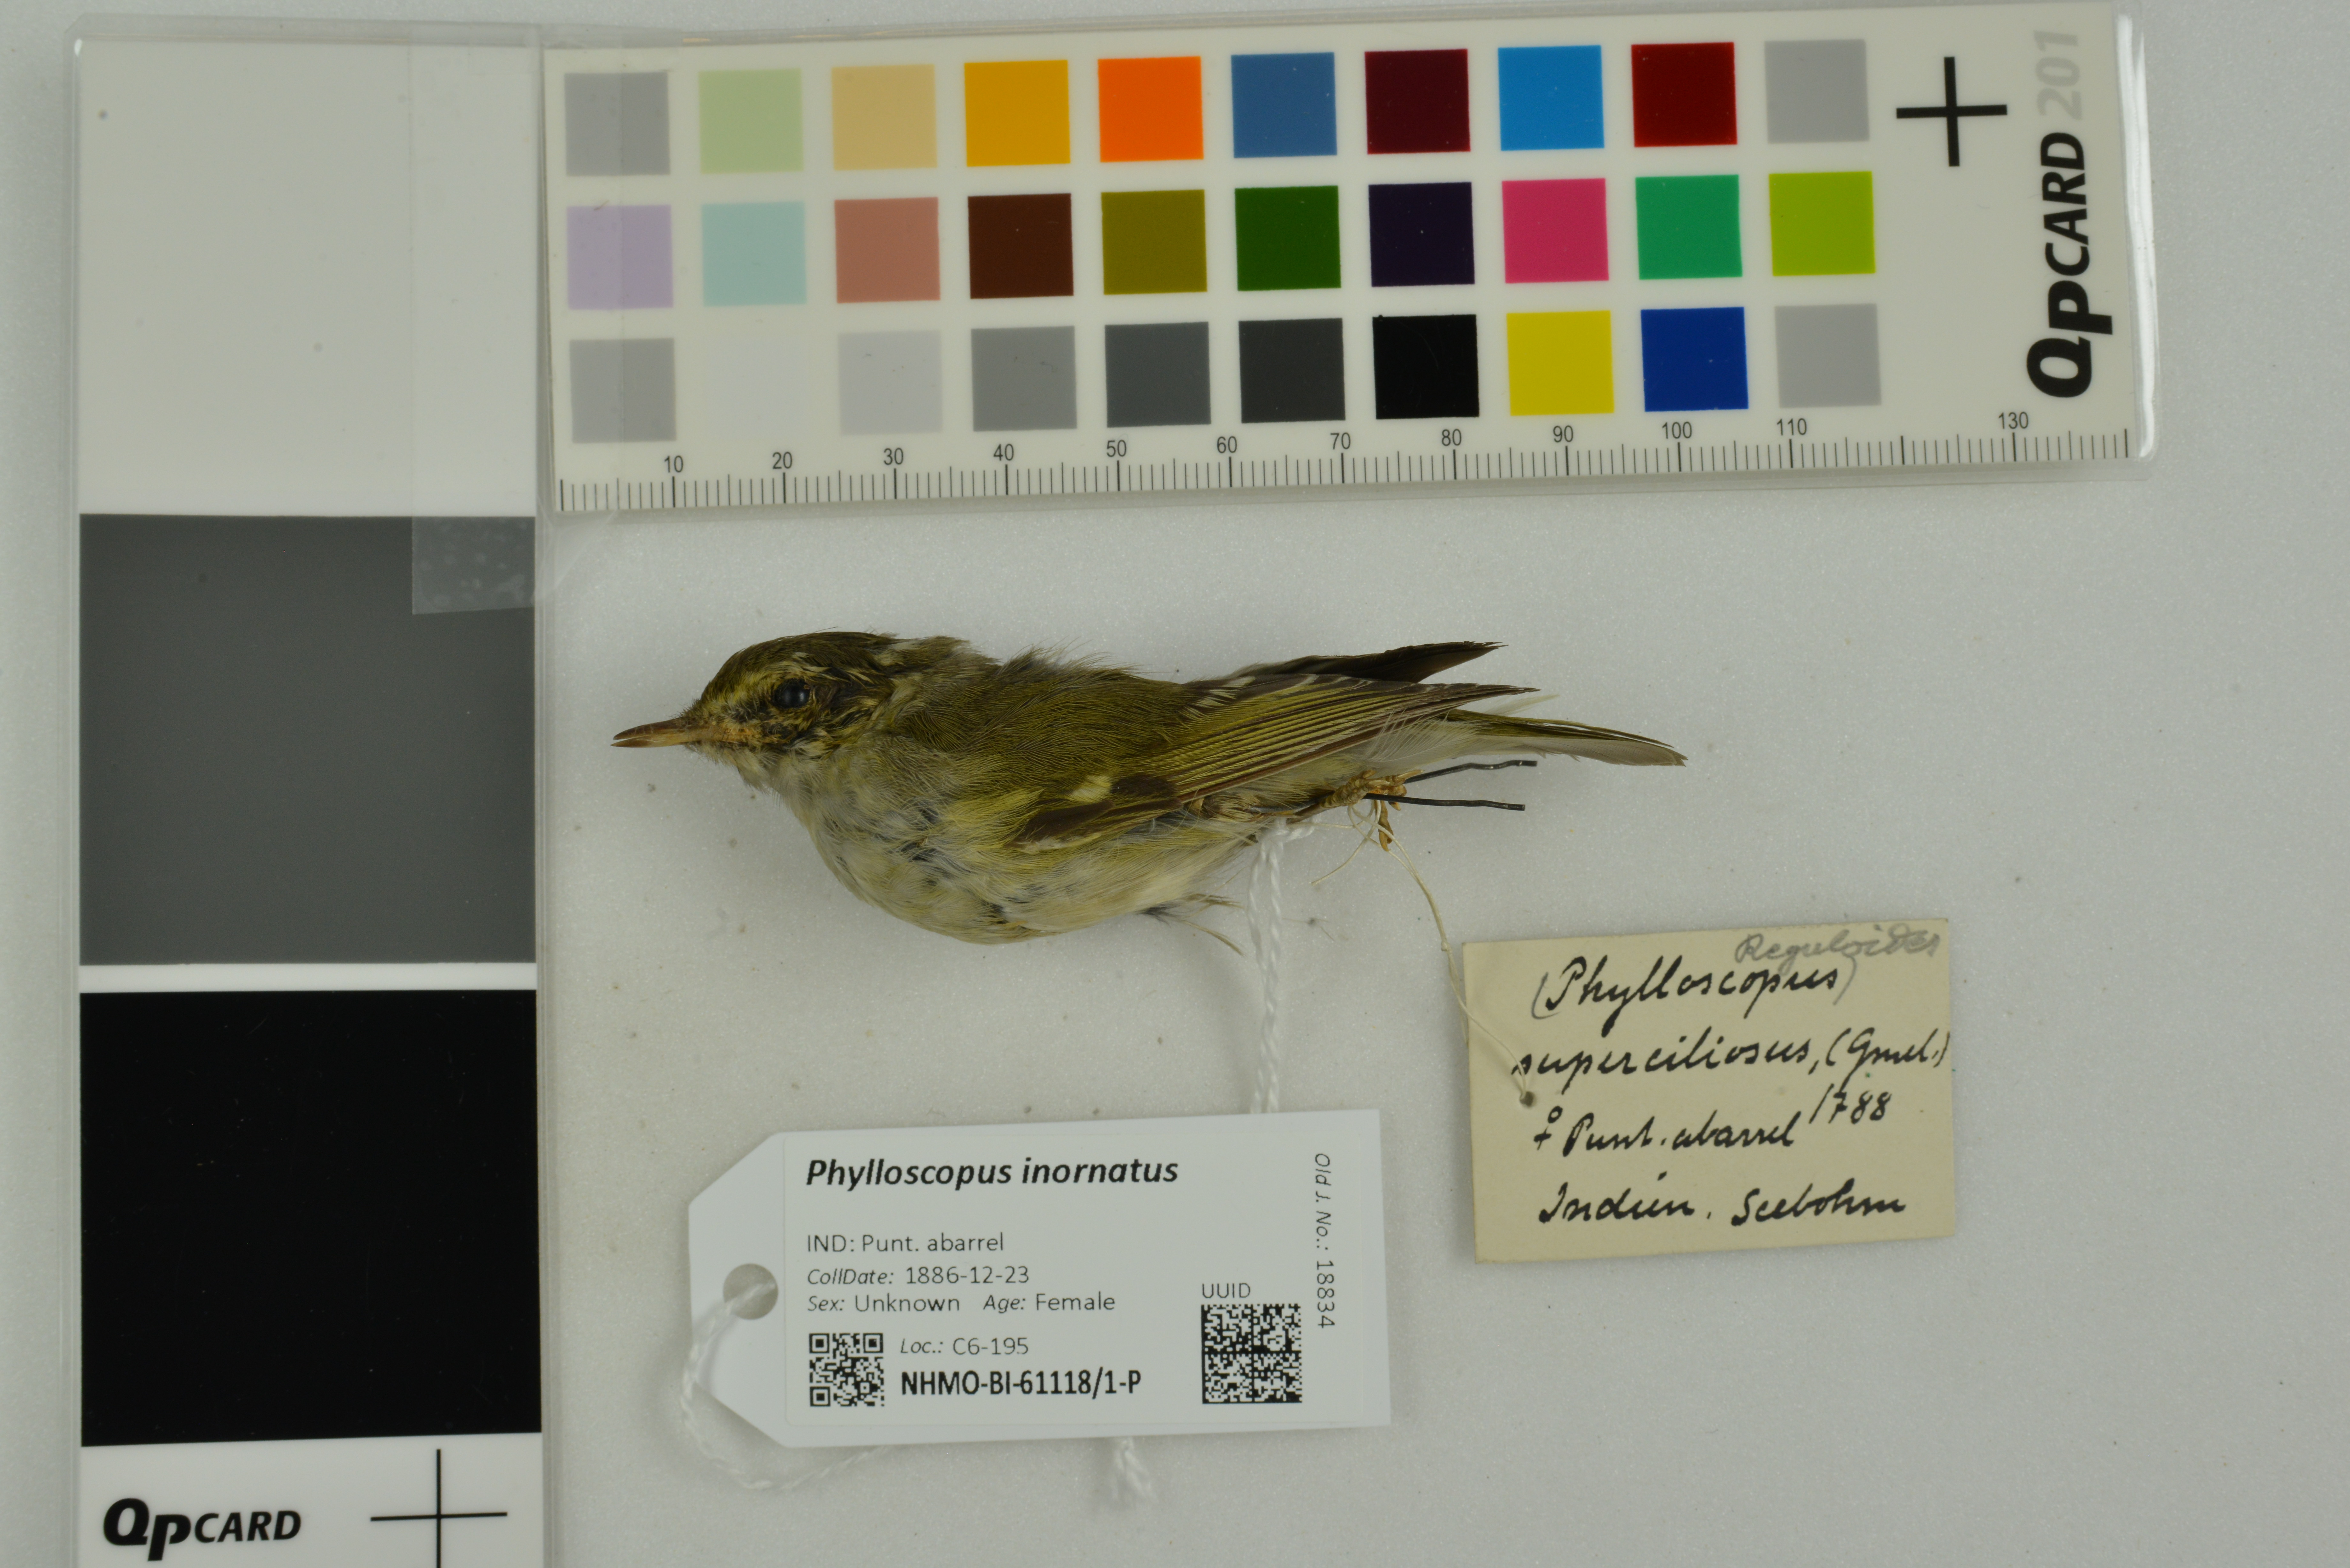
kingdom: Animalia
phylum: Chordata
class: Aves
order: Passeriformes
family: Phylloscopidae
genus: Phylloscopus
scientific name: Phylloscopus inornatus
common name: Yellow-browed warbler
